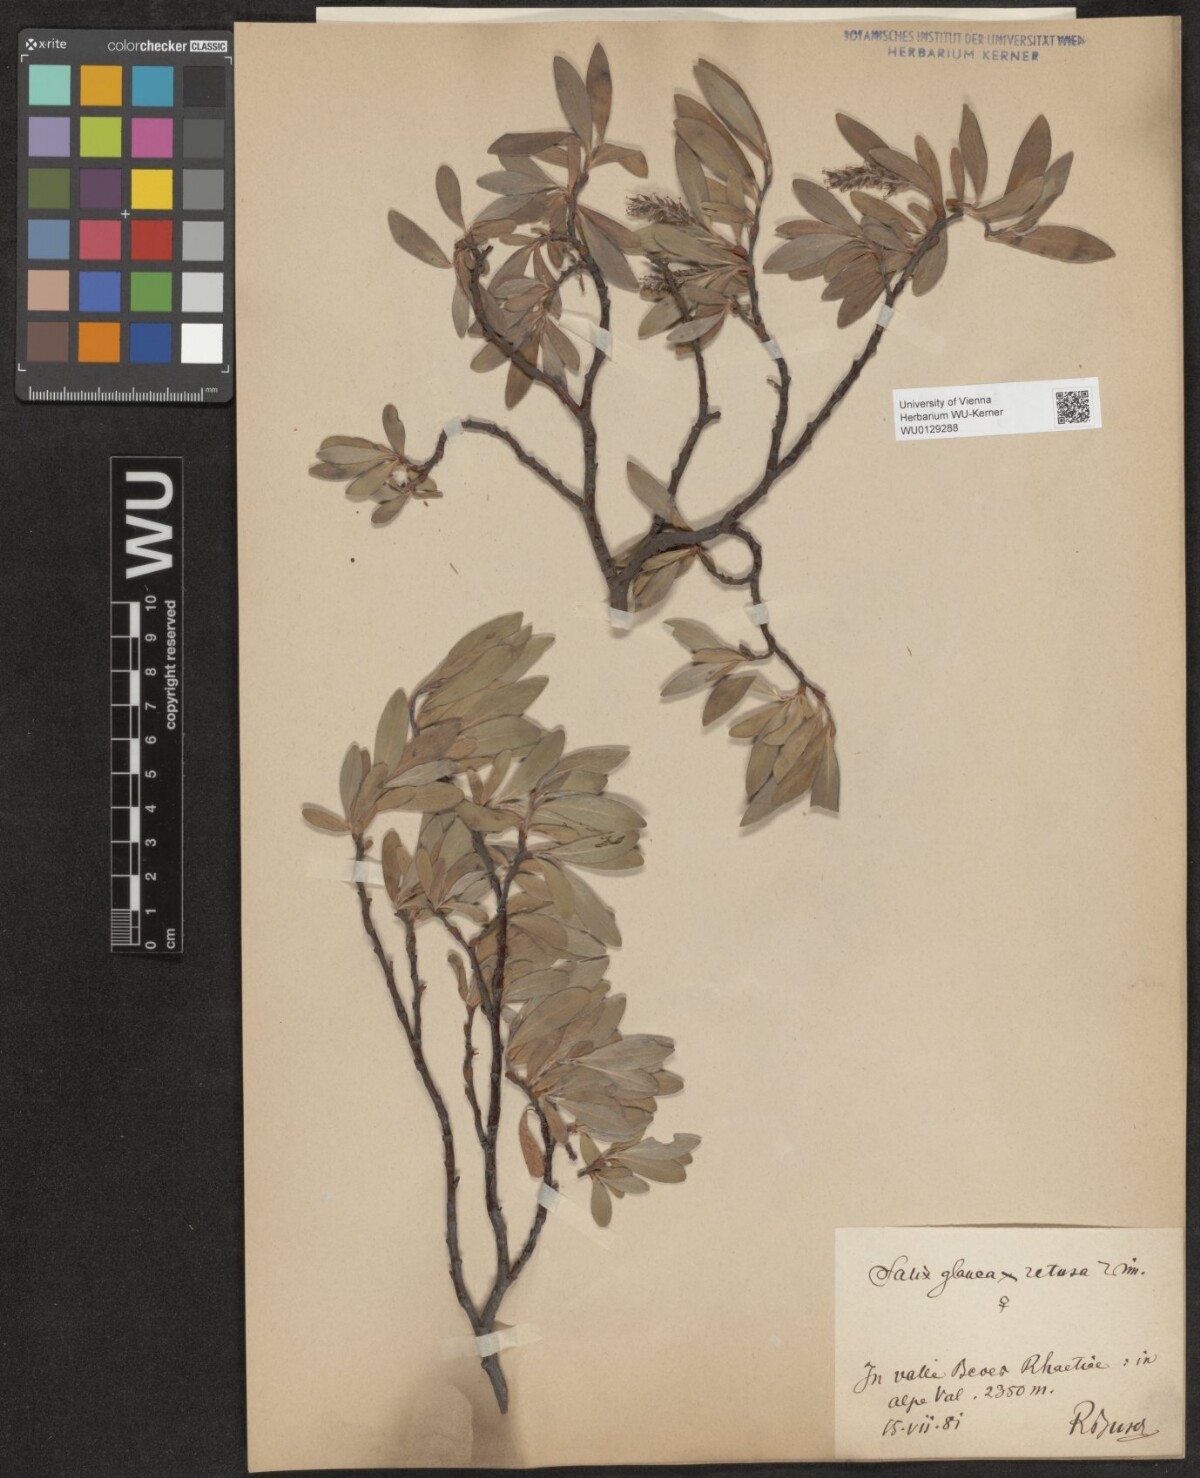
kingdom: Plantae
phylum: Tracheophyta
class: Magnoliopsida
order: Malpighiales
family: Salicaceae
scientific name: Salicaceae
